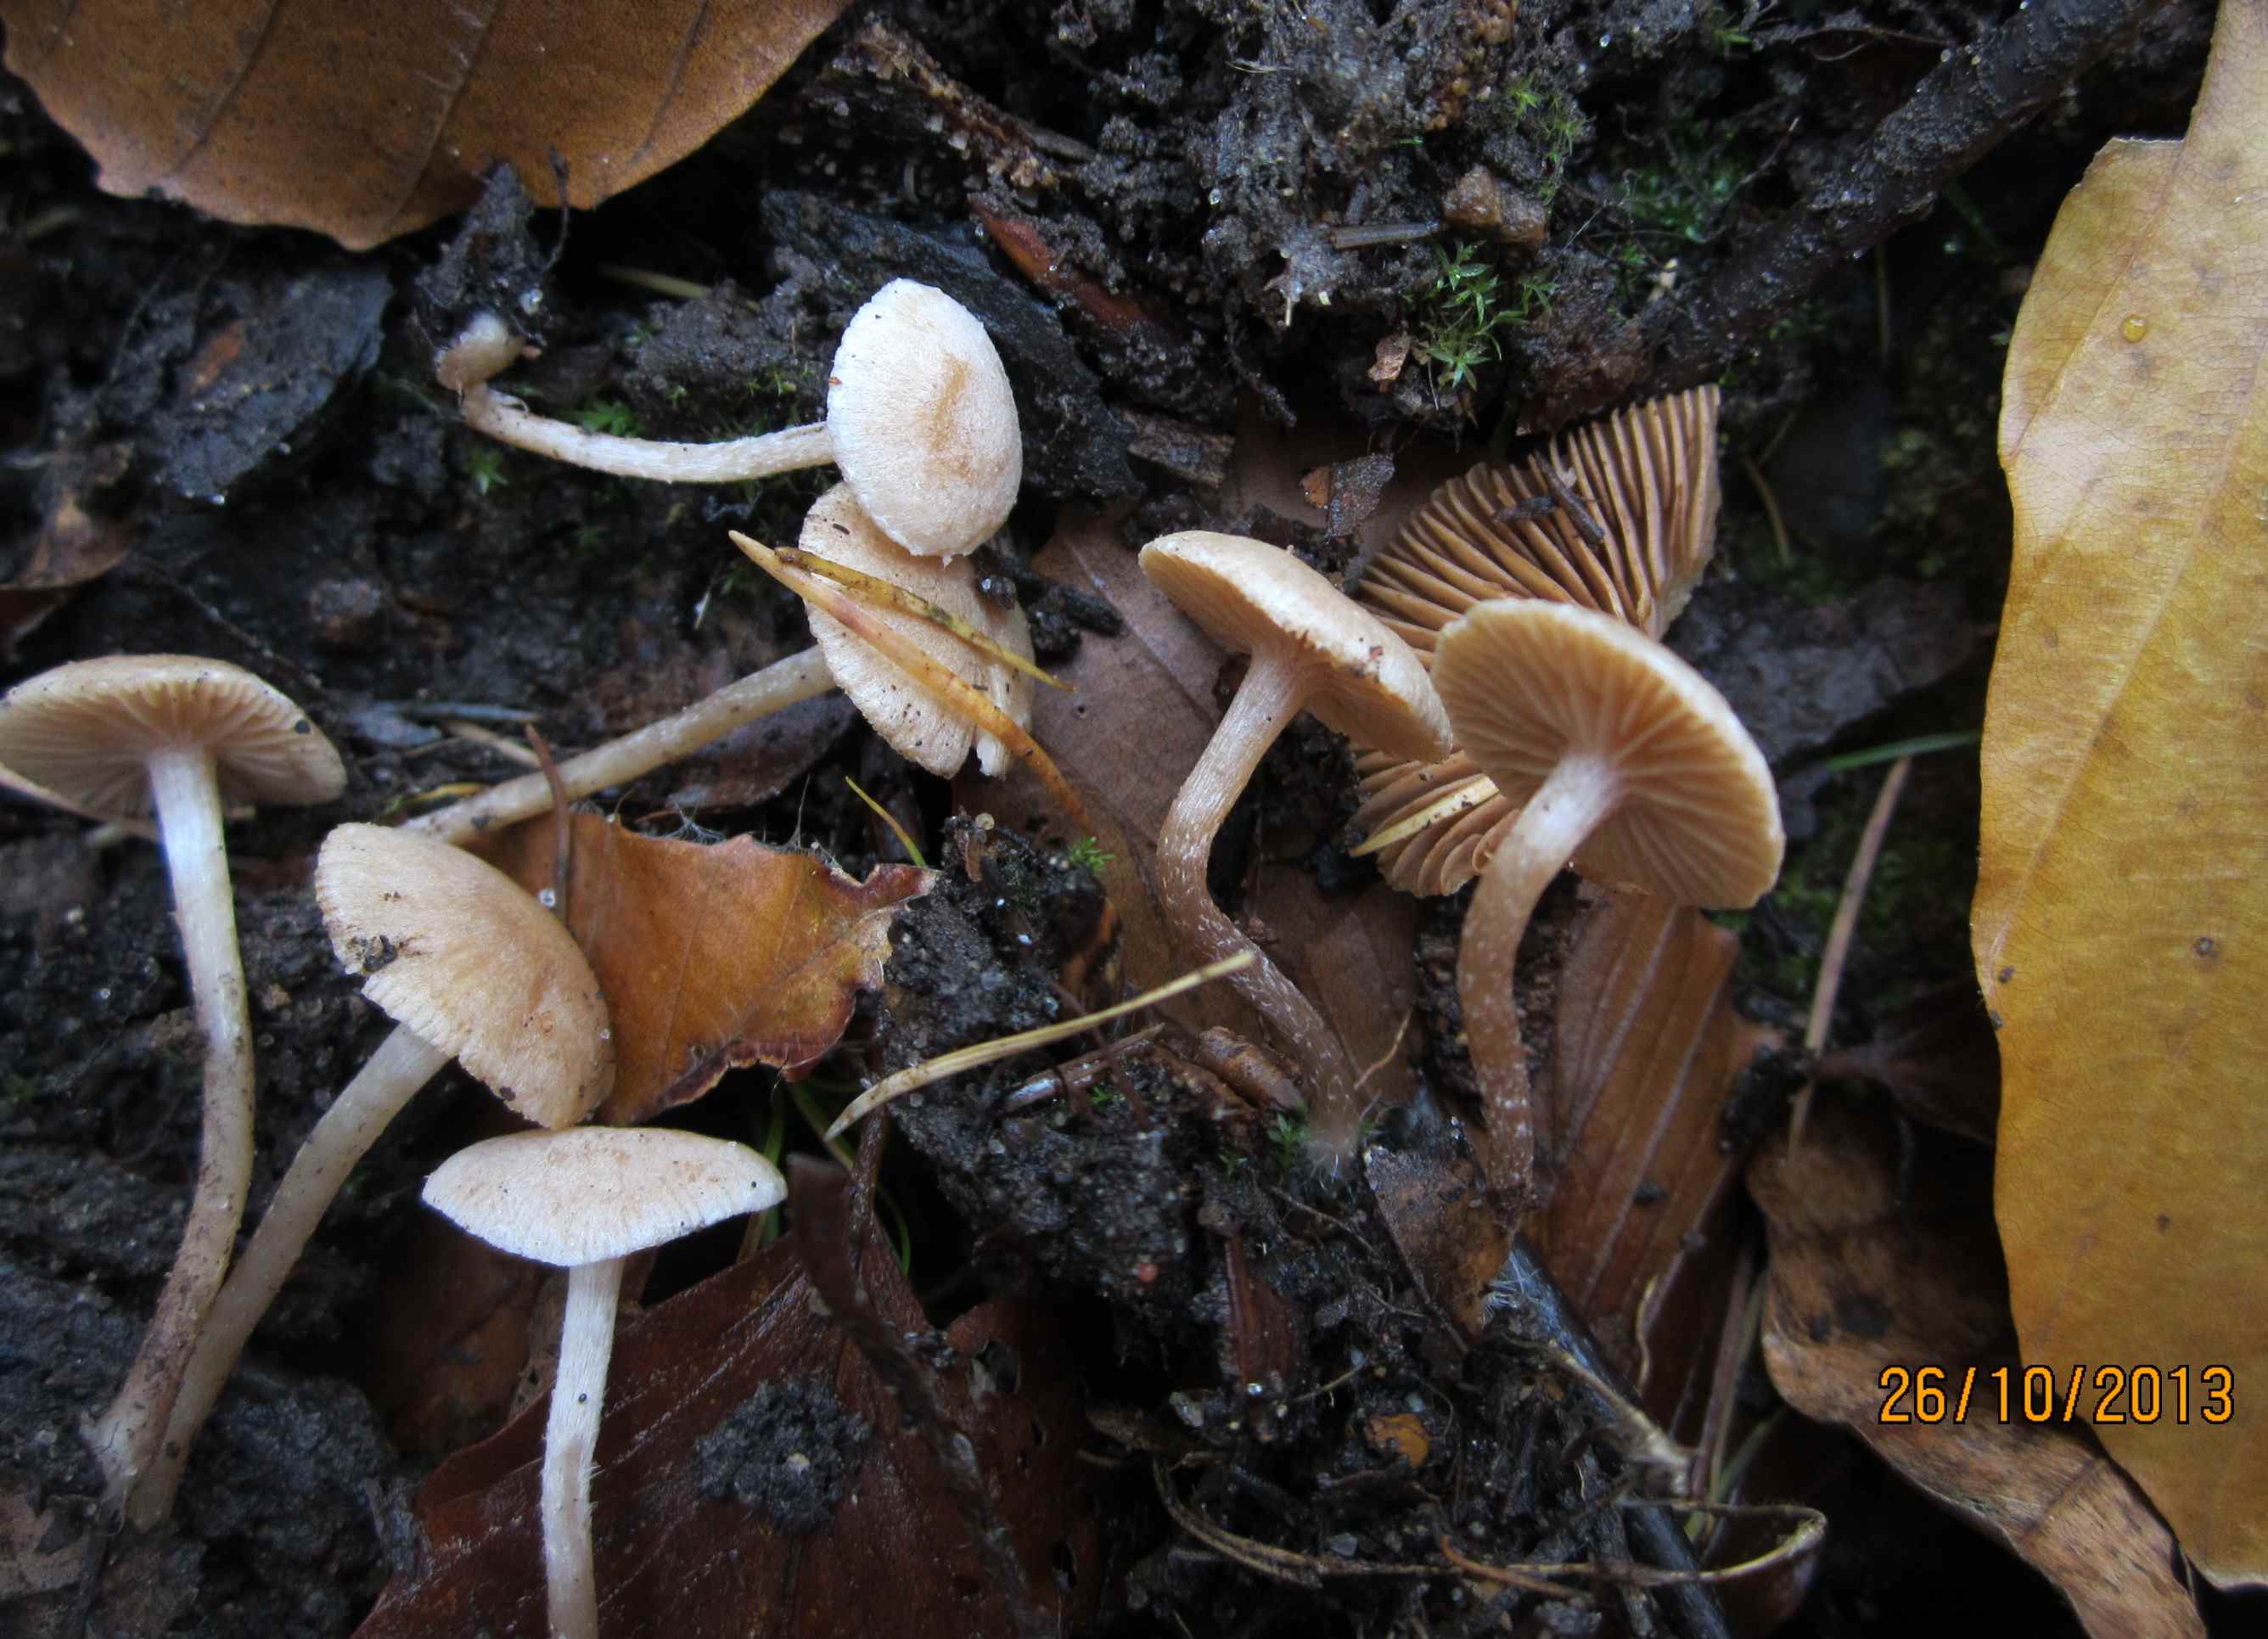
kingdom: Fungi
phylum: Basidiomycota
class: Agaricomycetes
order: Agaricales
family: Tubariaceae
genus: Tubaria
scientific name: Tubaria conspersa
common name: bleg fnughat
